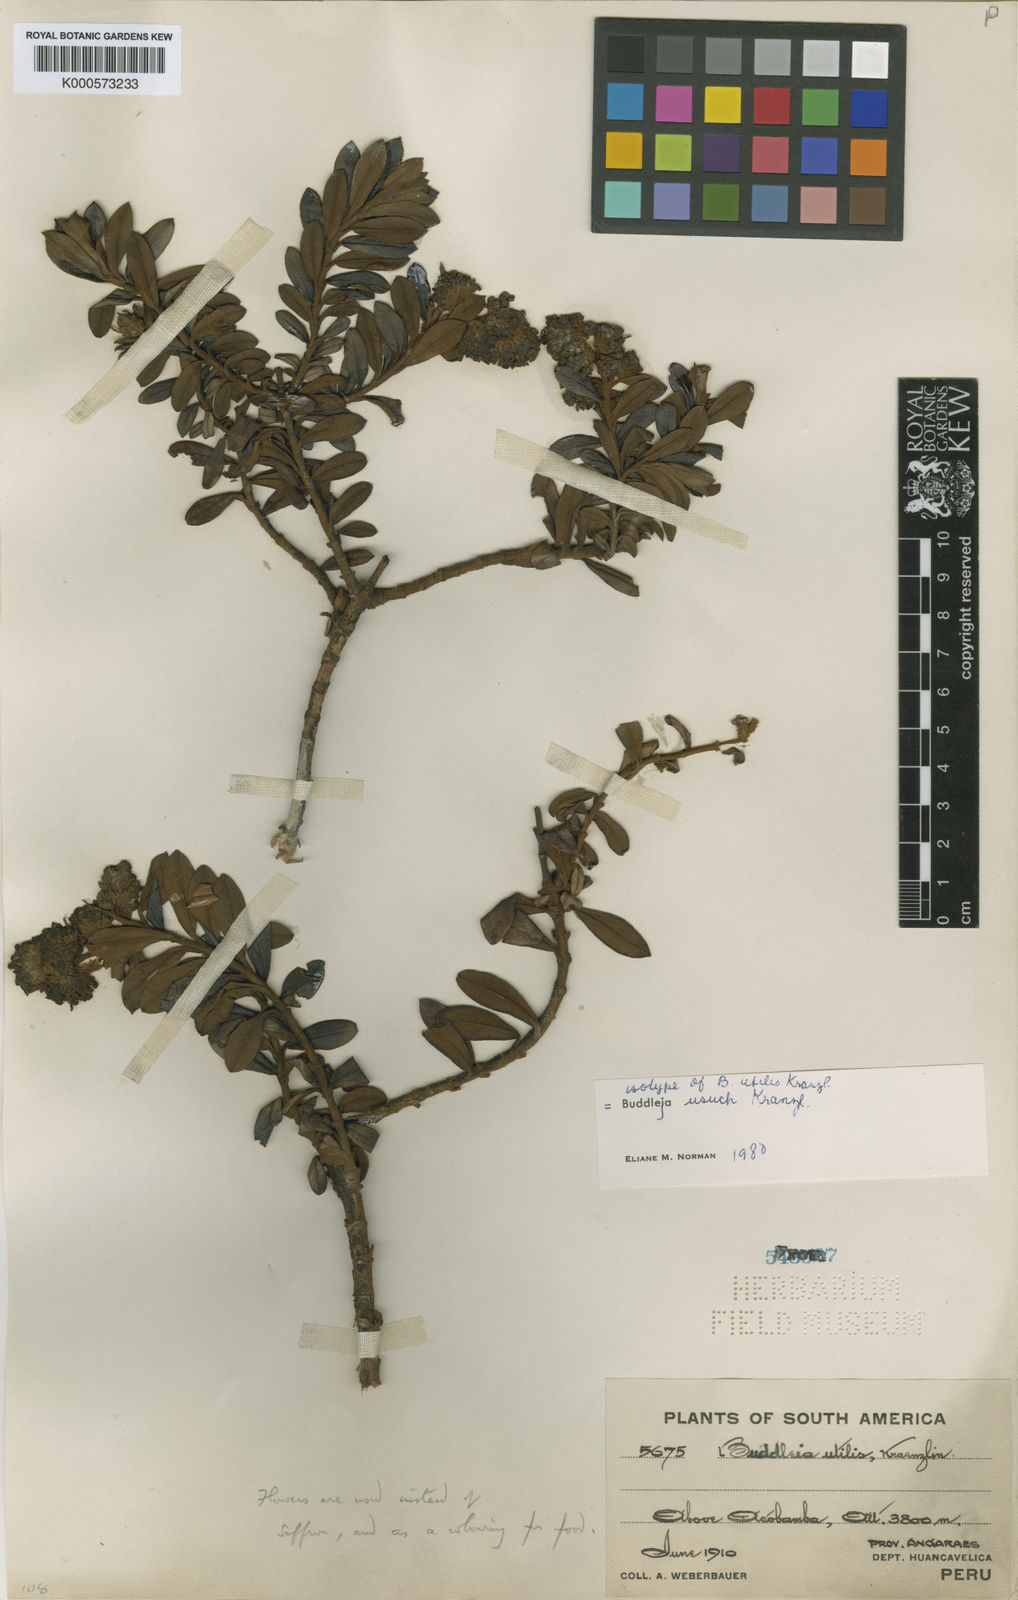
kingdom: Plantae
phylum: Tracheophyta
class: Magnoliopsida
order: Lamiales
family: Scrophulariaceae
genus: Buddleja
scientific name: Buddleja
